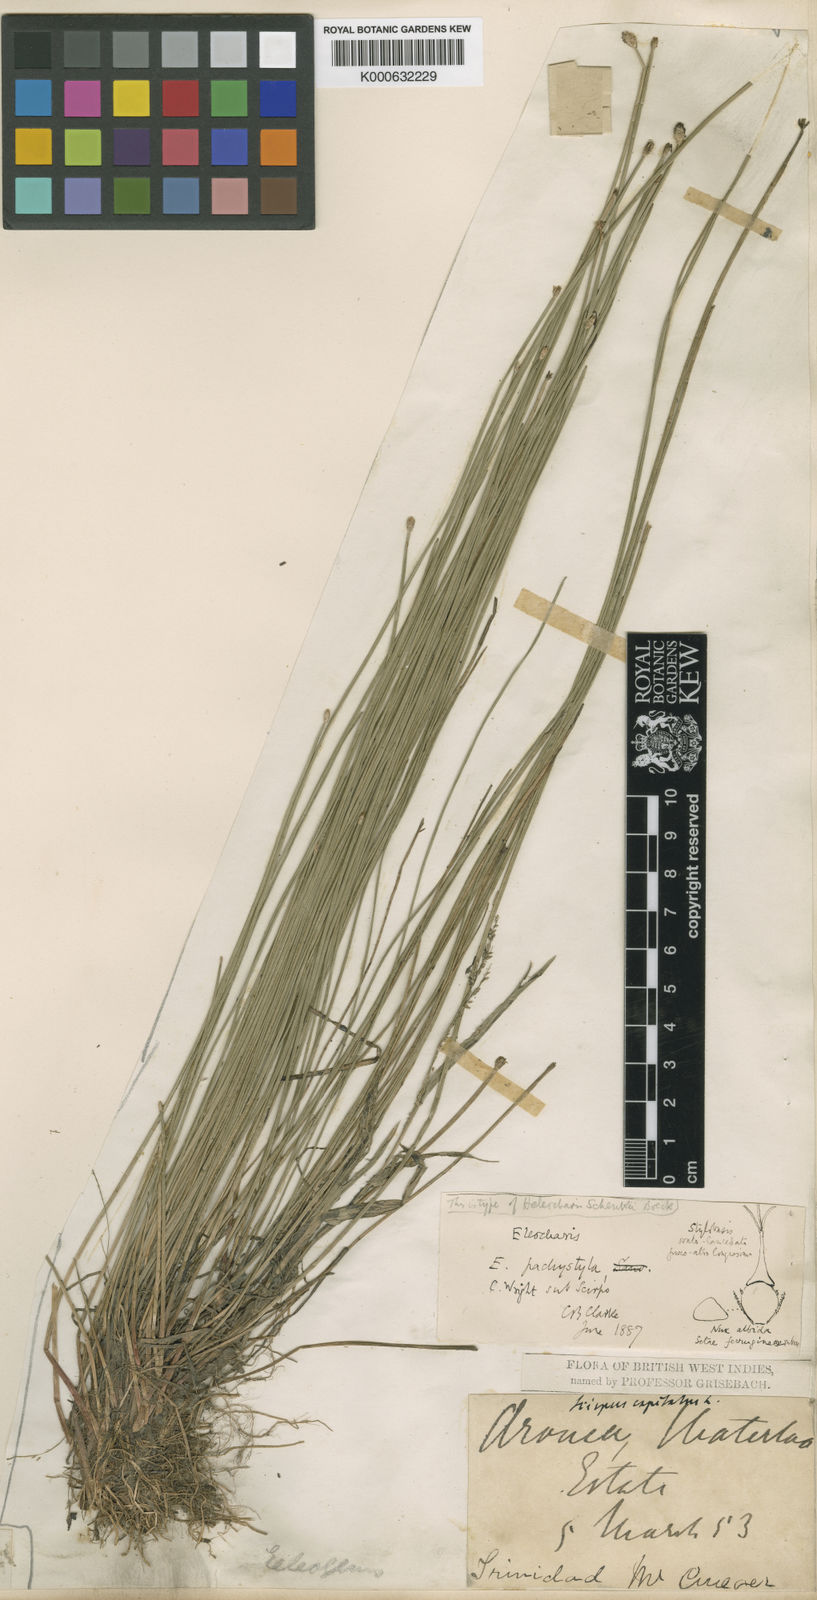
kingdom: Plantae
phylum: Tracheophyta
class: Liliopsida
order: Poales
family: Cyperaceae
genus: Eleocharis
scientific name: Eleocharis pachystyla
